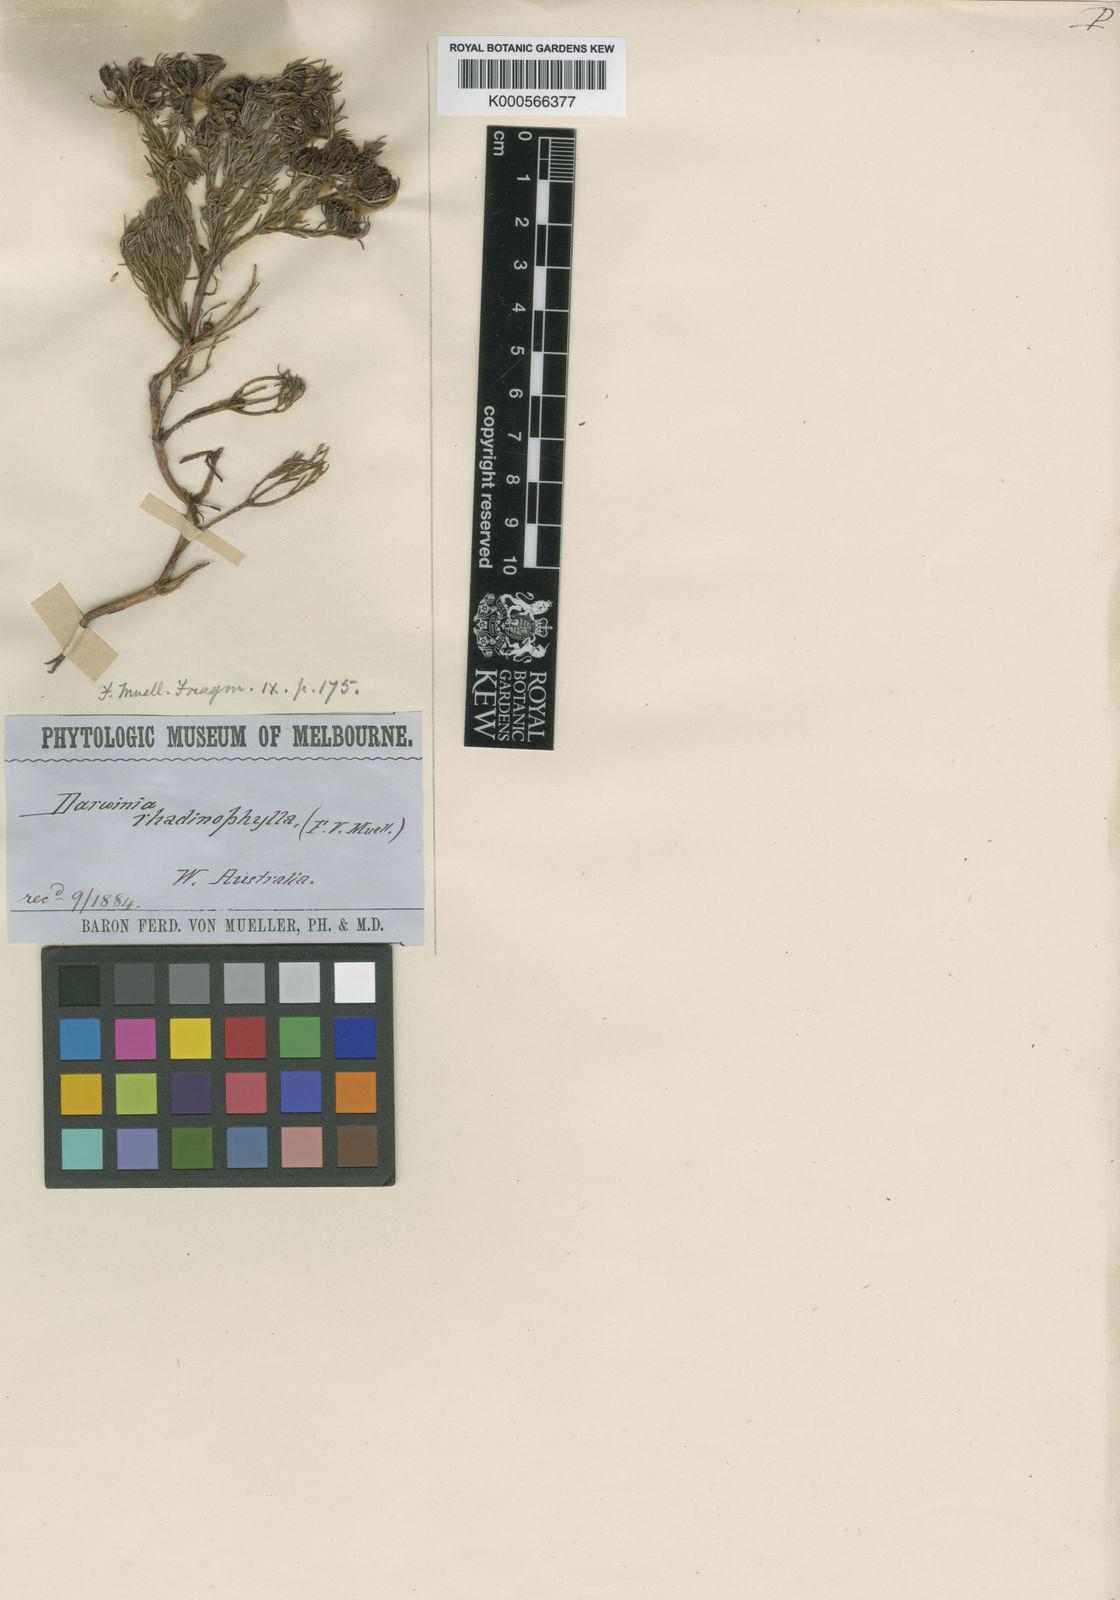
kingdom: Plantae
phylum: Tracheophyta
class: Magnoliopsida
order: Myrtales
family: Myrtaceae
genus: Darwinia
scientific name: Darwinia pinifolia
